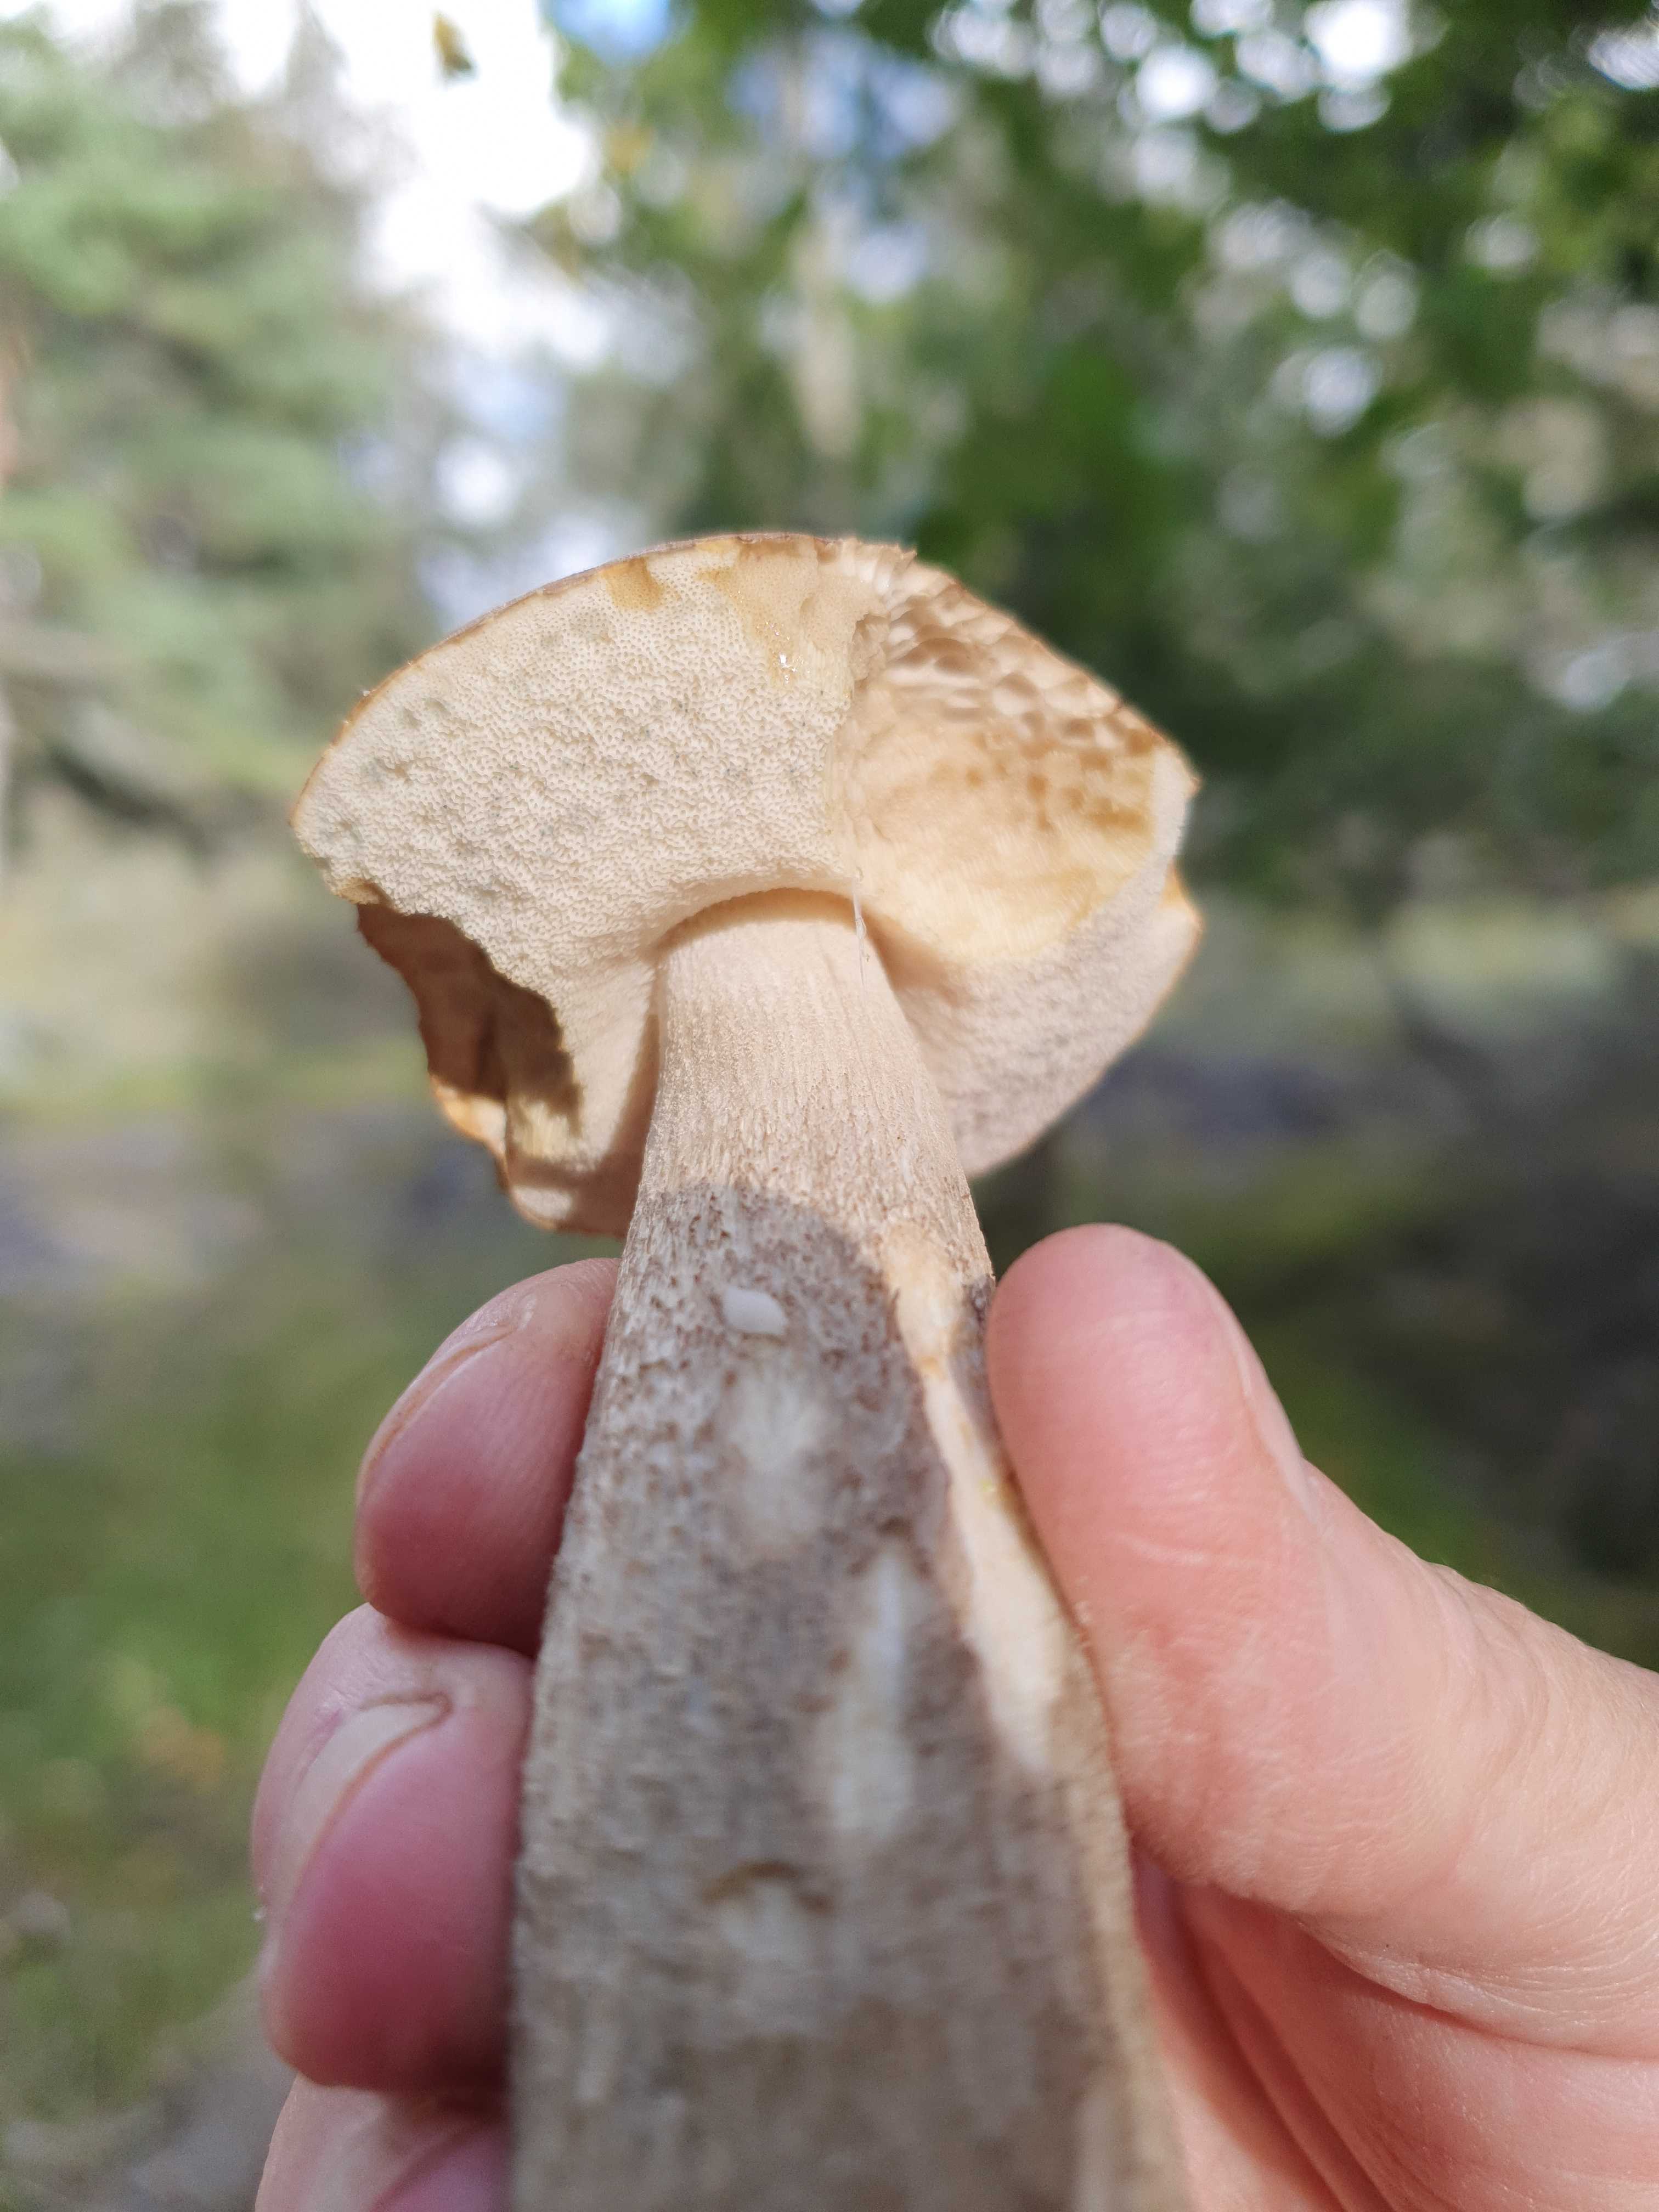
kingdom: Fungi
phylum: Basidiomycota
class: Agaricomycetes
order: Boletales
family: Boletaceae
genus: Leccinum
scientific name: Leccinum
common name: skælrørhat
